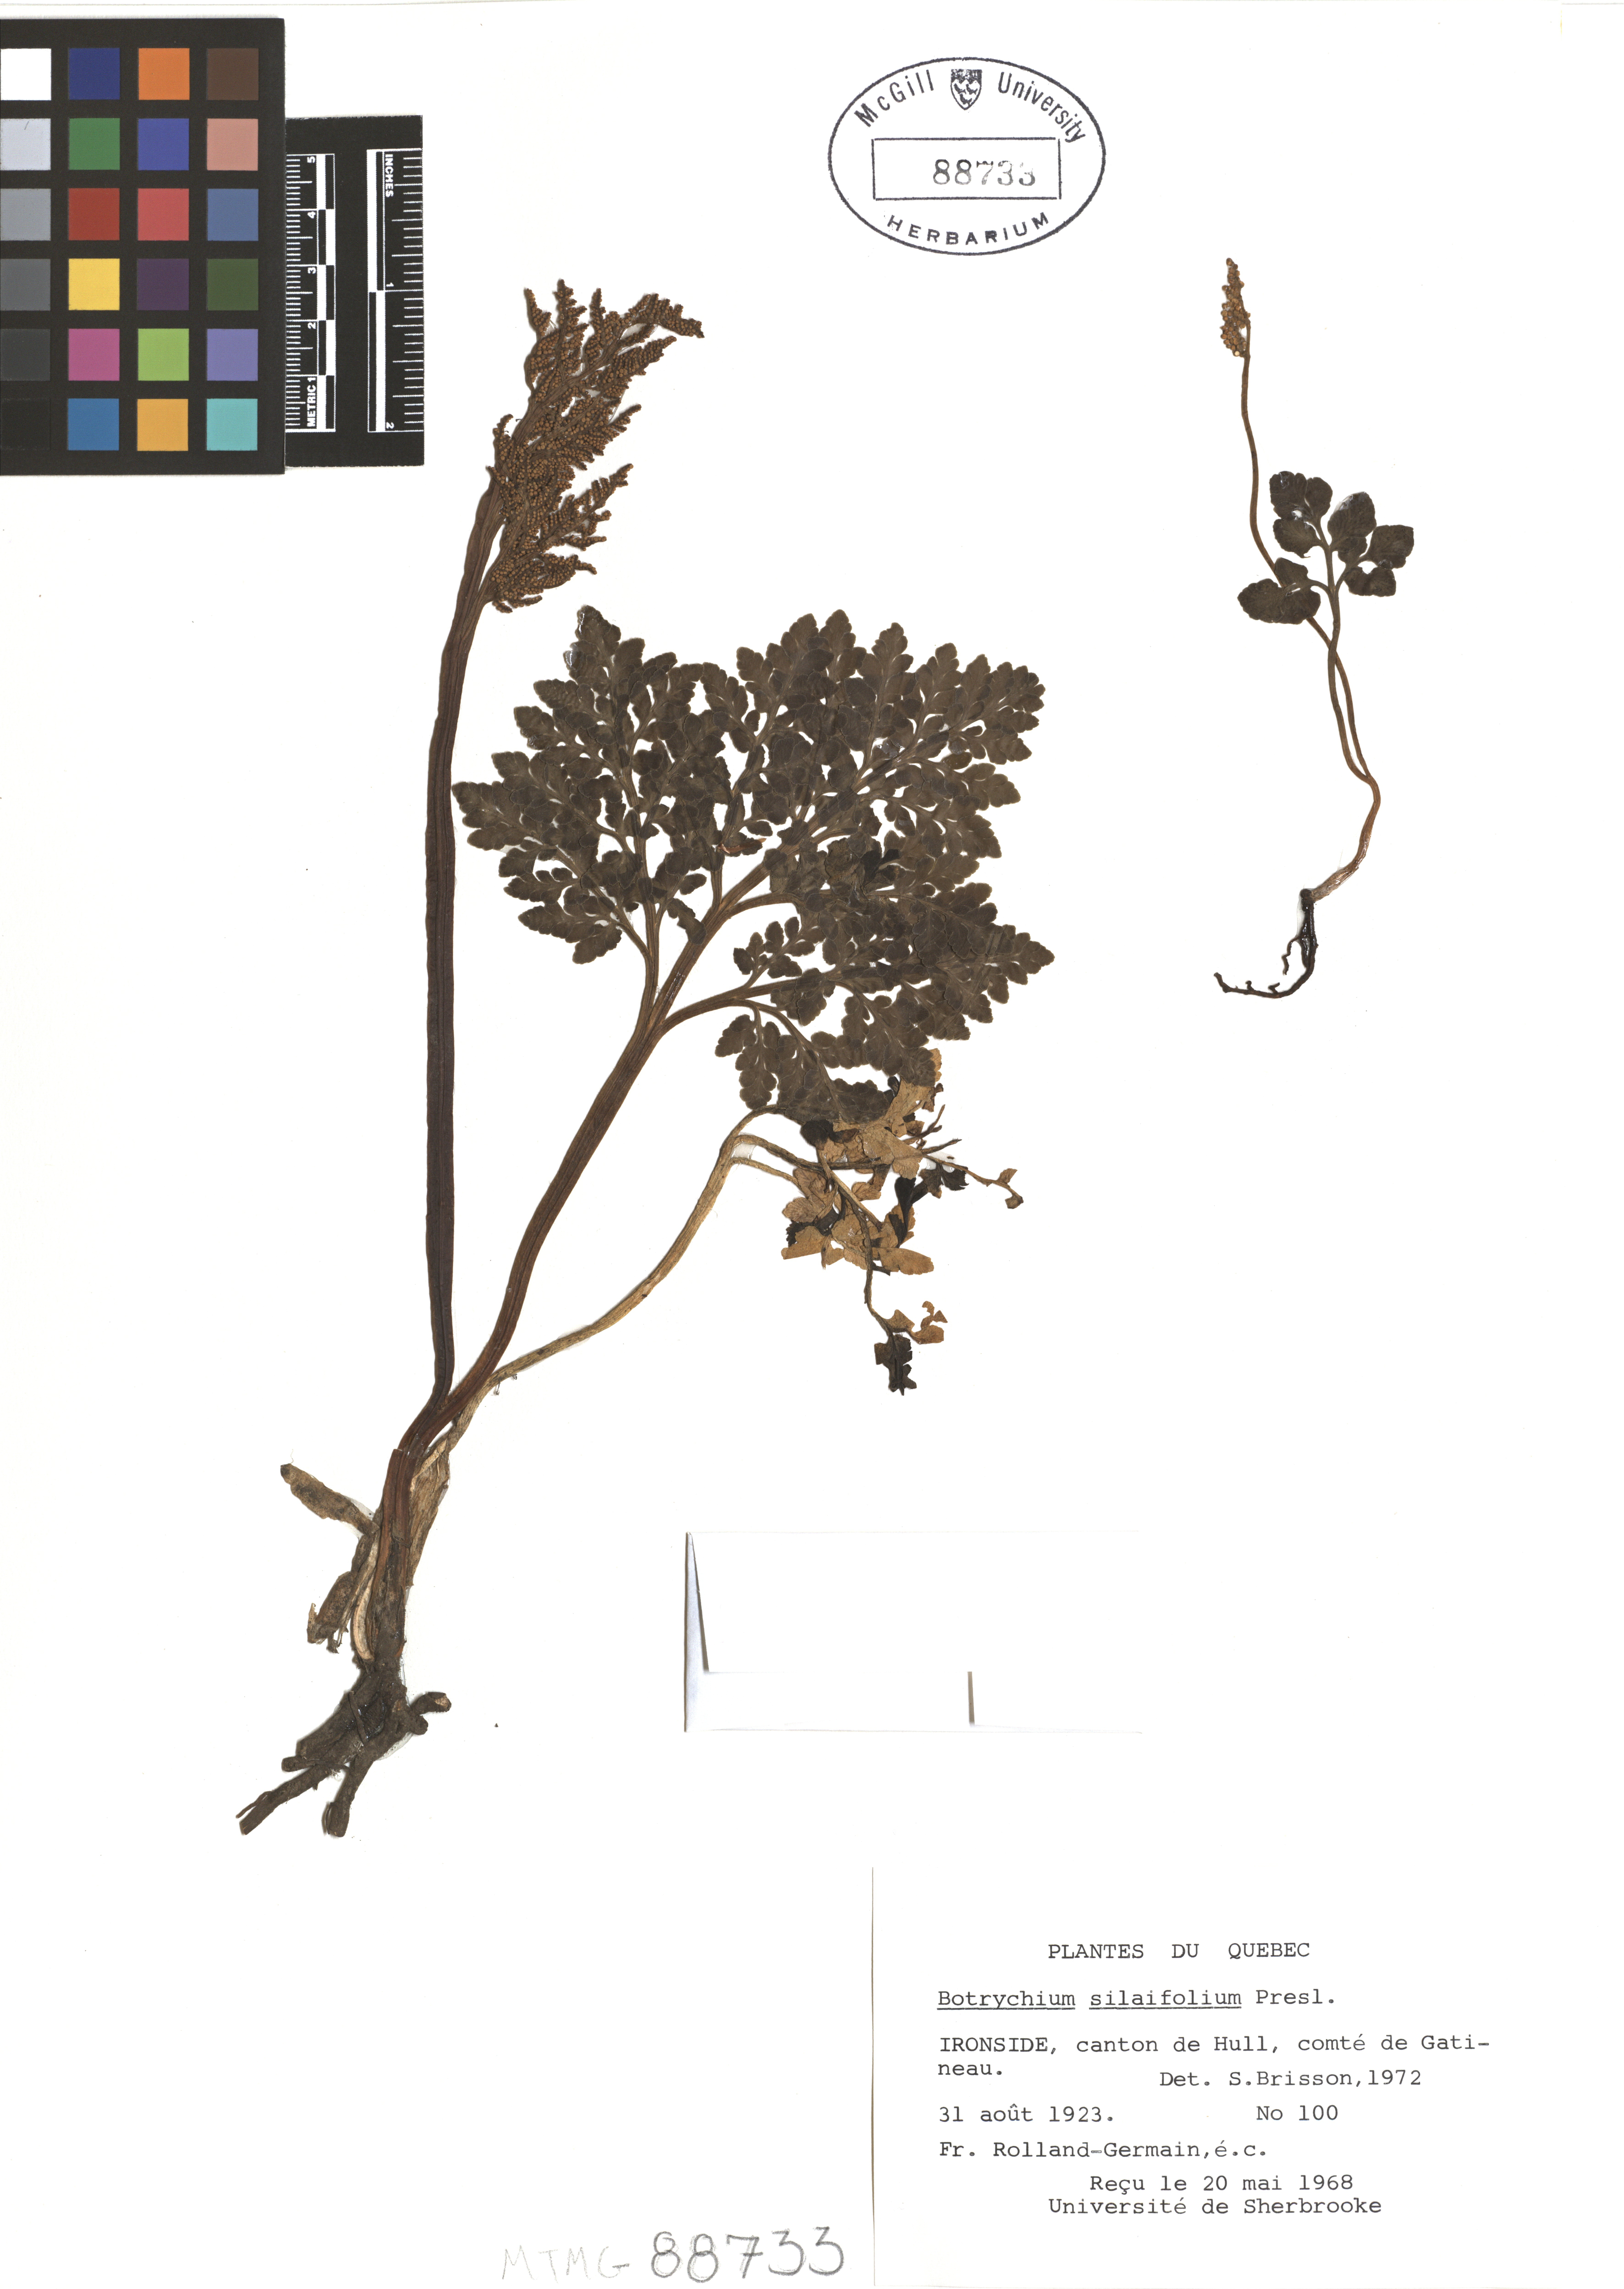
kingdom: Plantae
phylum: Tracheophyta
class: Polypodiopsida
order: Ophioglossales
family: Ophioglossaceae
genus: Sceptridium
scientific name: Sceptridium multifidum
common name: Leathery grape fern
